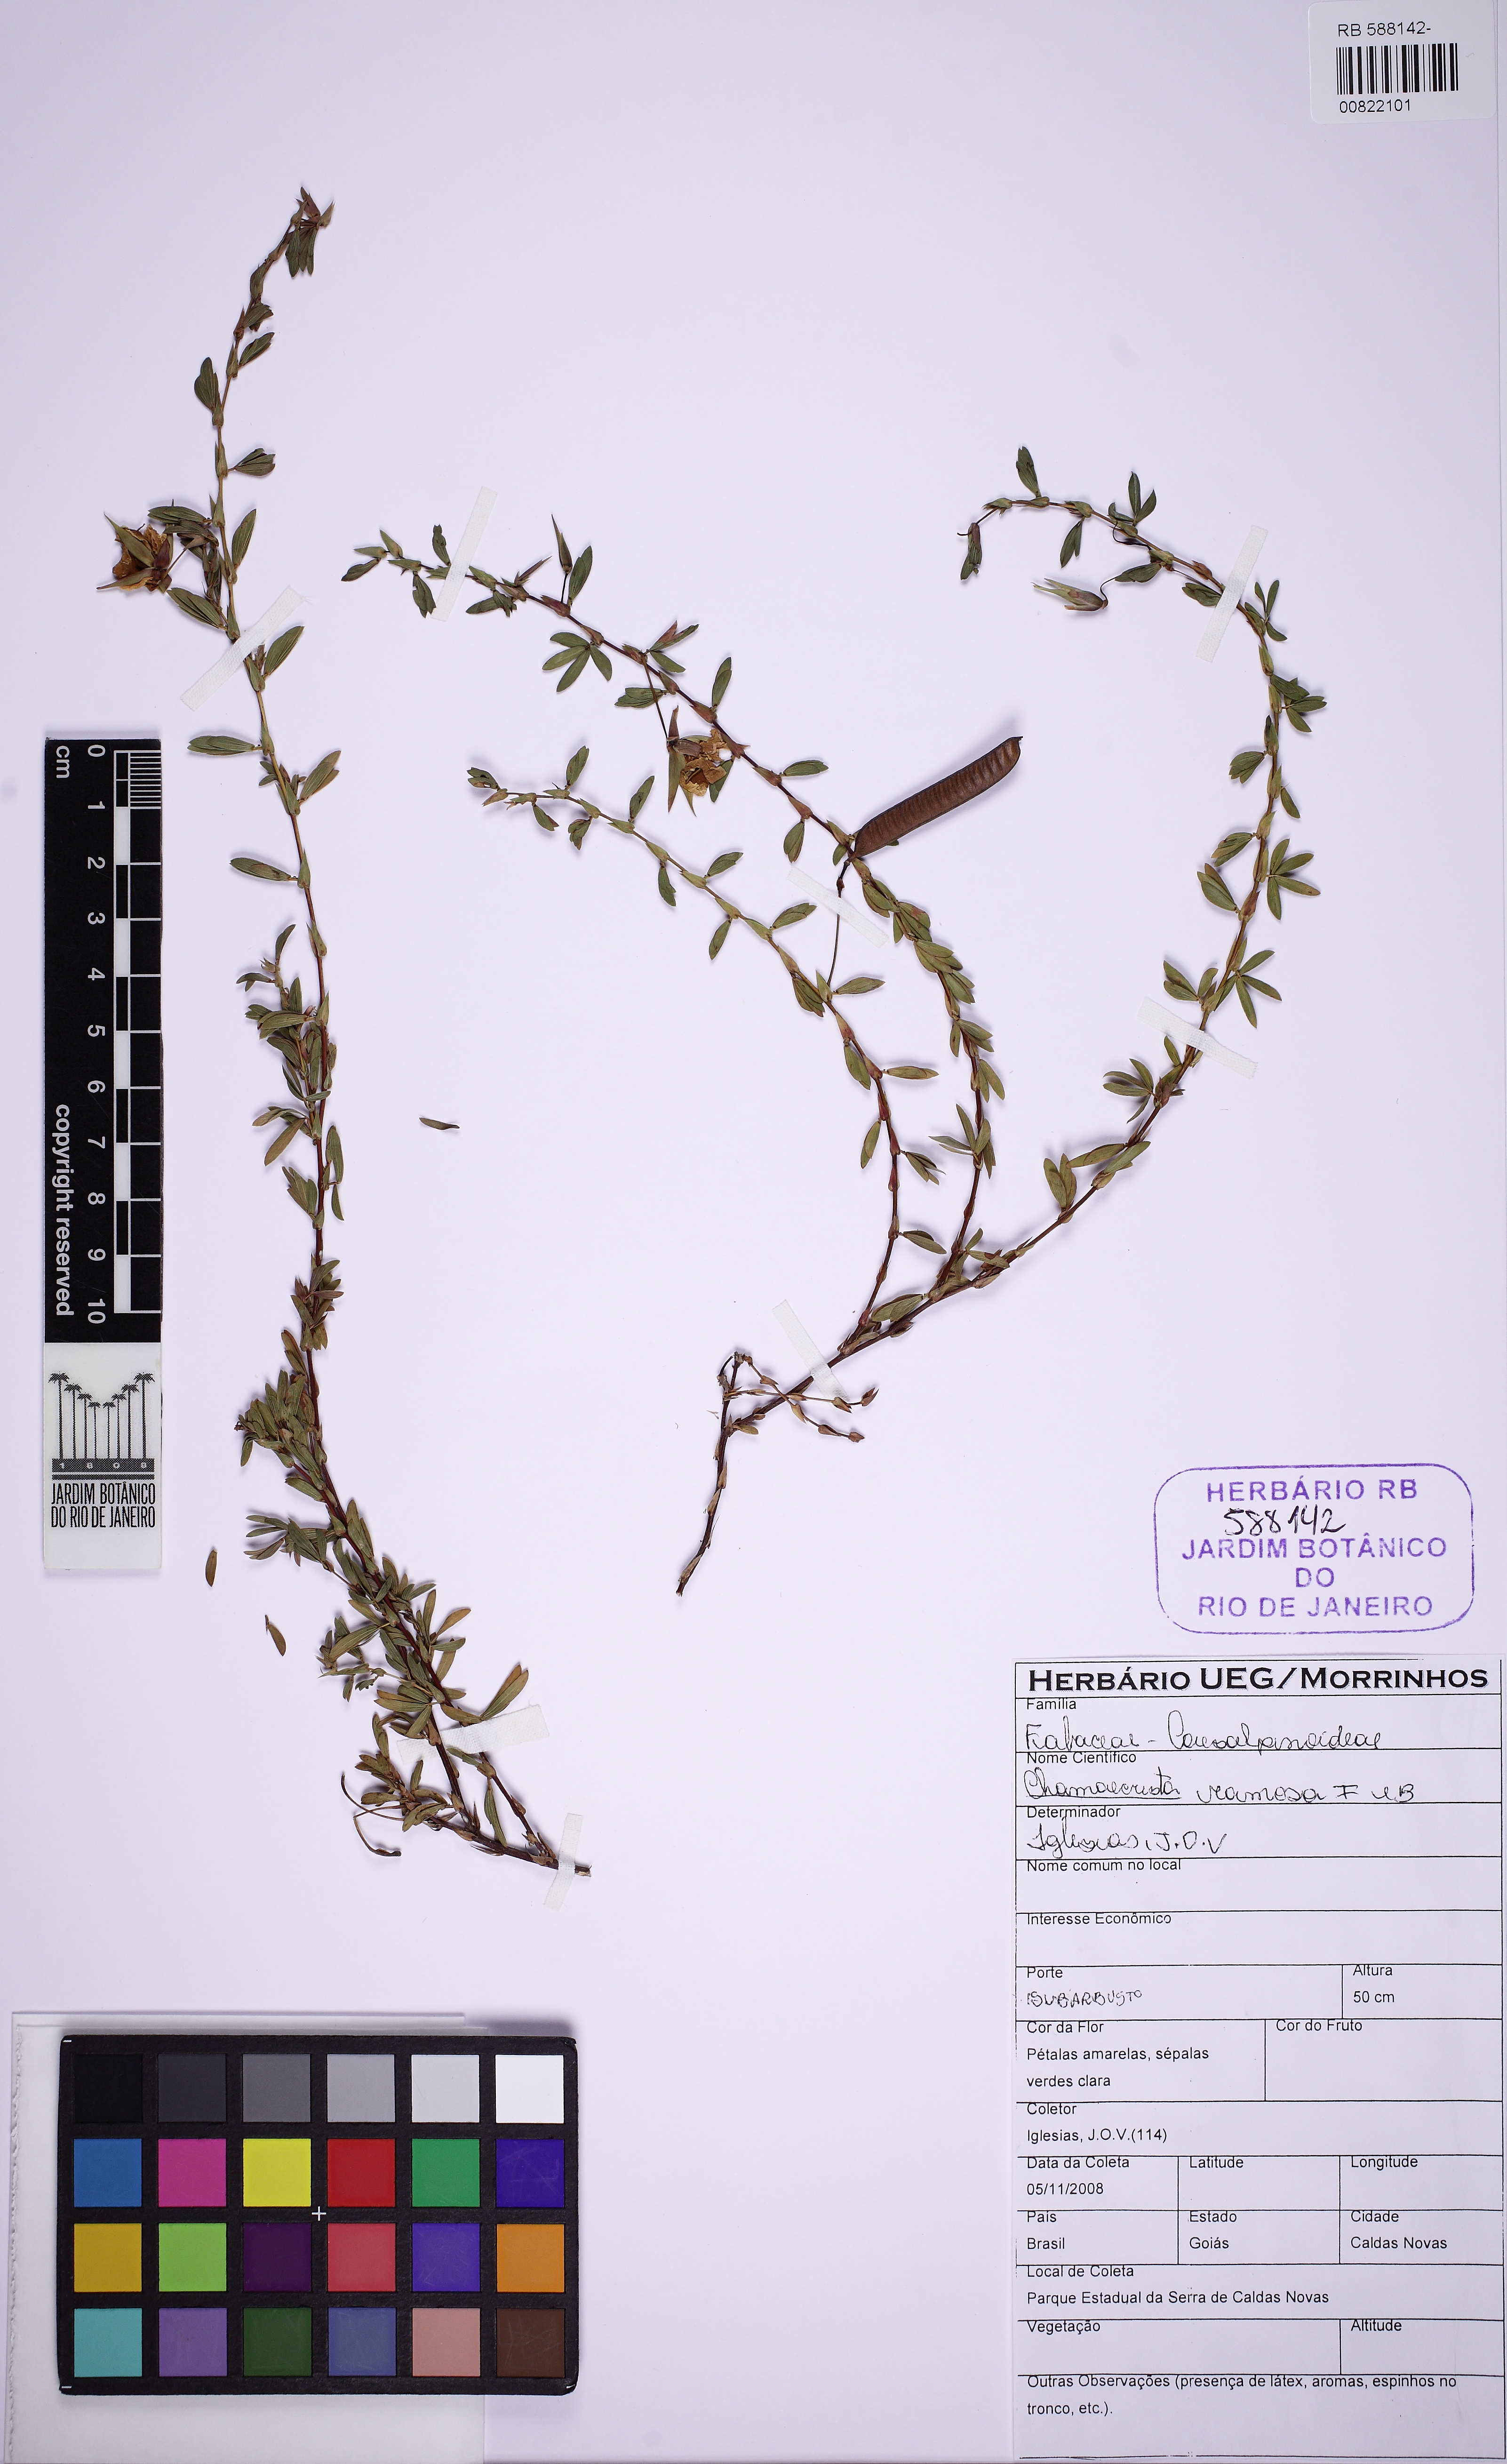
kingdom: Plantae
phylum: Tracheophyta
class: Magnoliopsida
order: Fabales
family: Fabaceae
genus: Chamaecrista
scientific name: Chamaecrista ramosa
